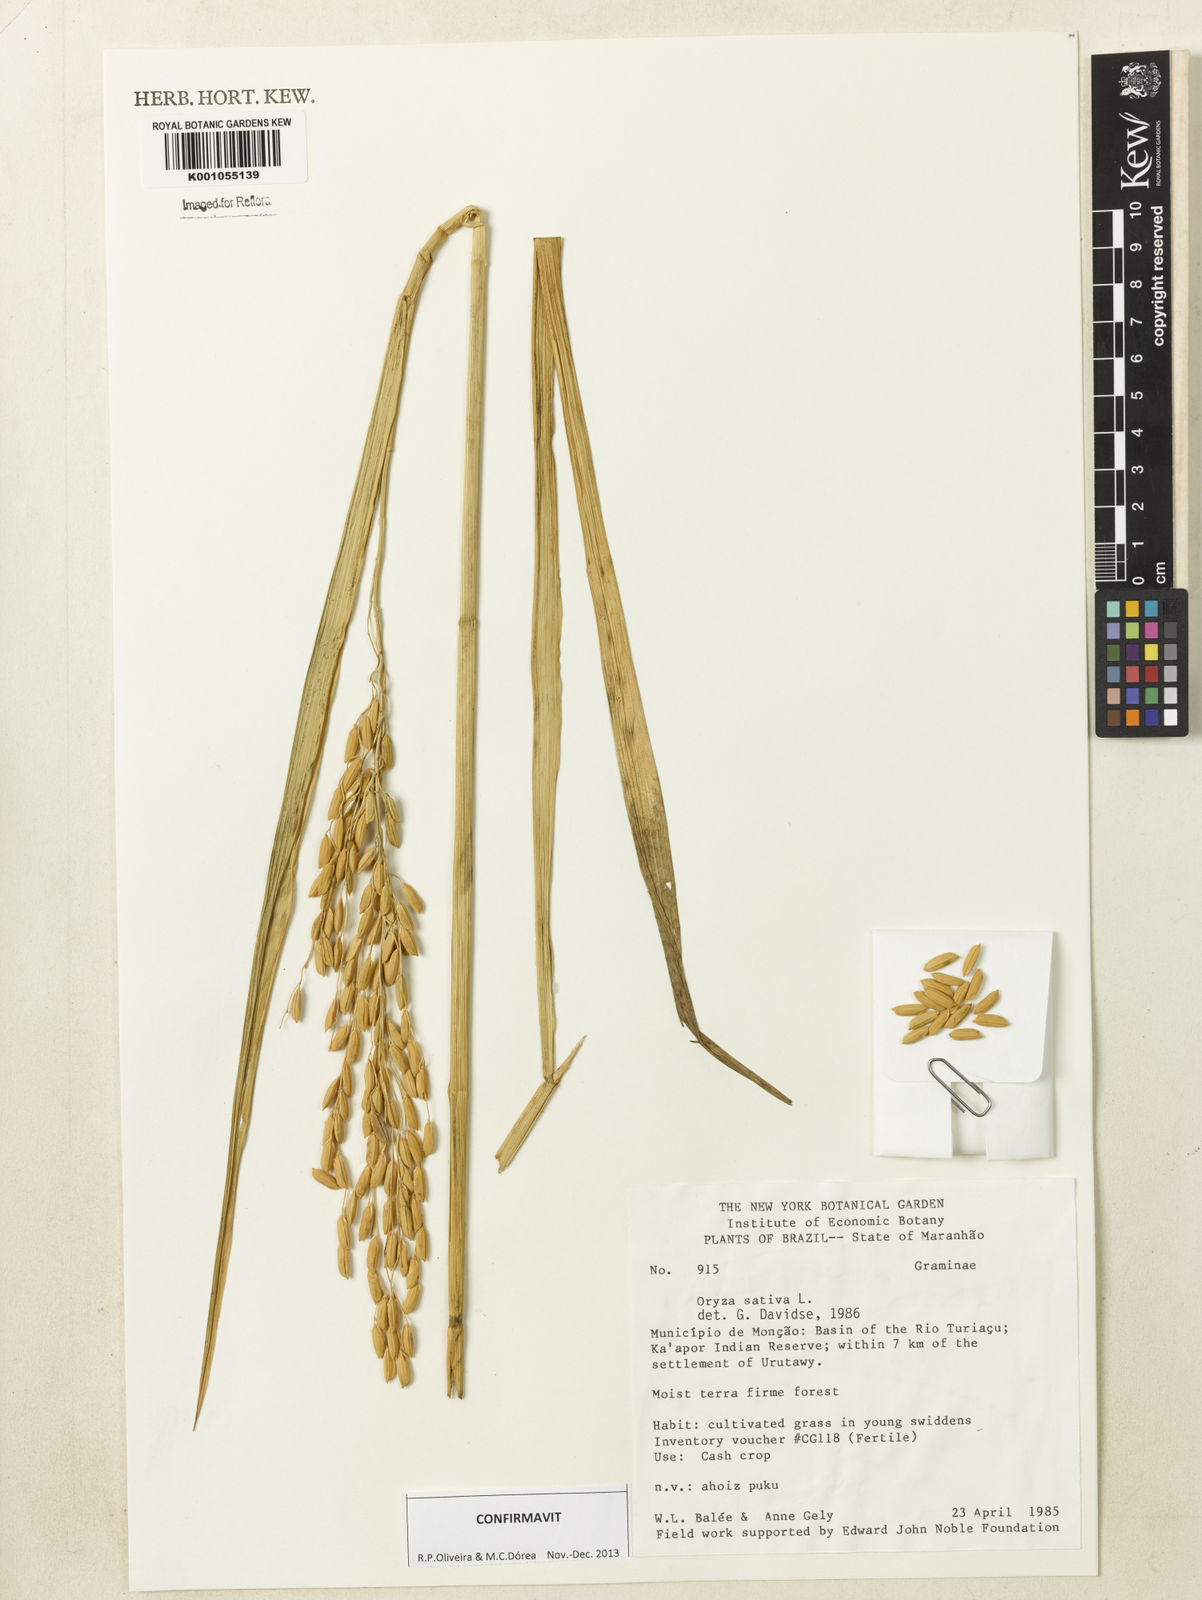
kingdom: Plantae
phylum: Tracheophyta
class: Liliopsida
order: Poales
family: Poaceae
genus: Oryza
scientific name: Oryza sativa
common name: Rice
